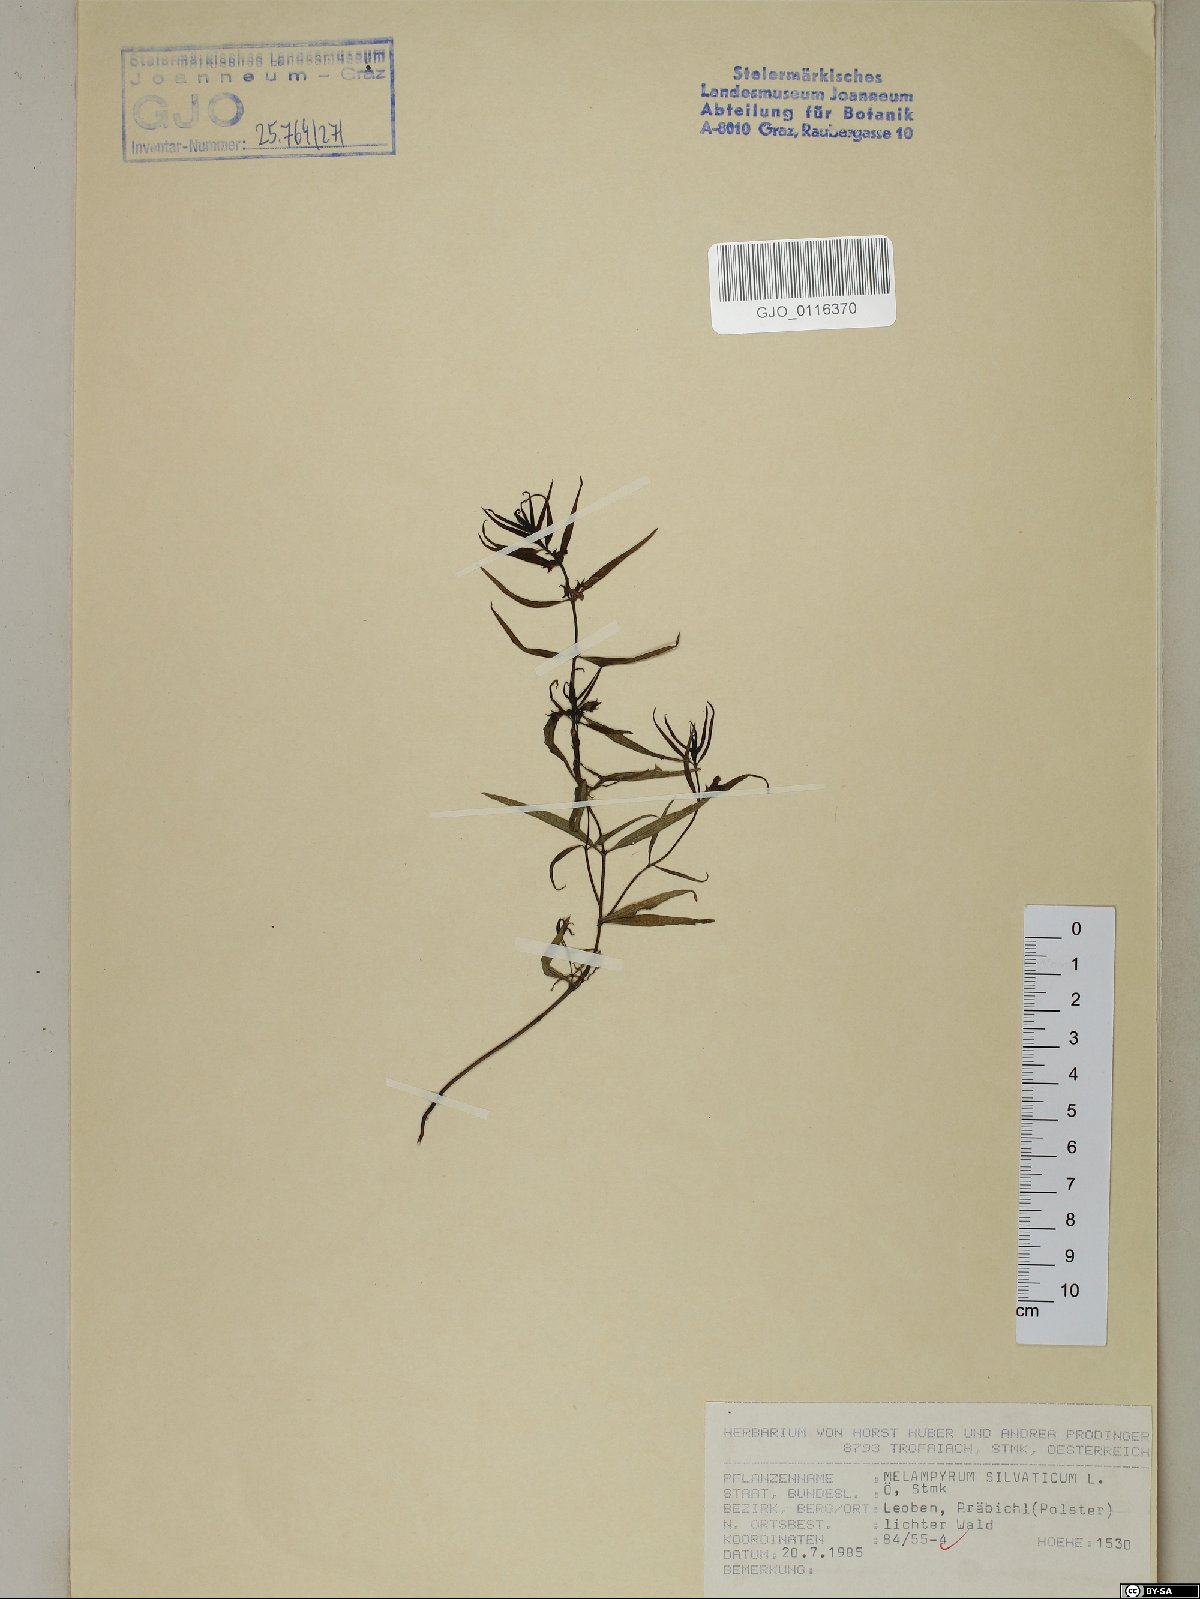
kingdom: Plantae
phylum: Tracheophyta
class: Magnoliopsida
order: Lamiales
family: Orobanchaceae
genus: Melampyrum
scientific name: Melampyrum sylvaticum
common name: Small cow-wheat
